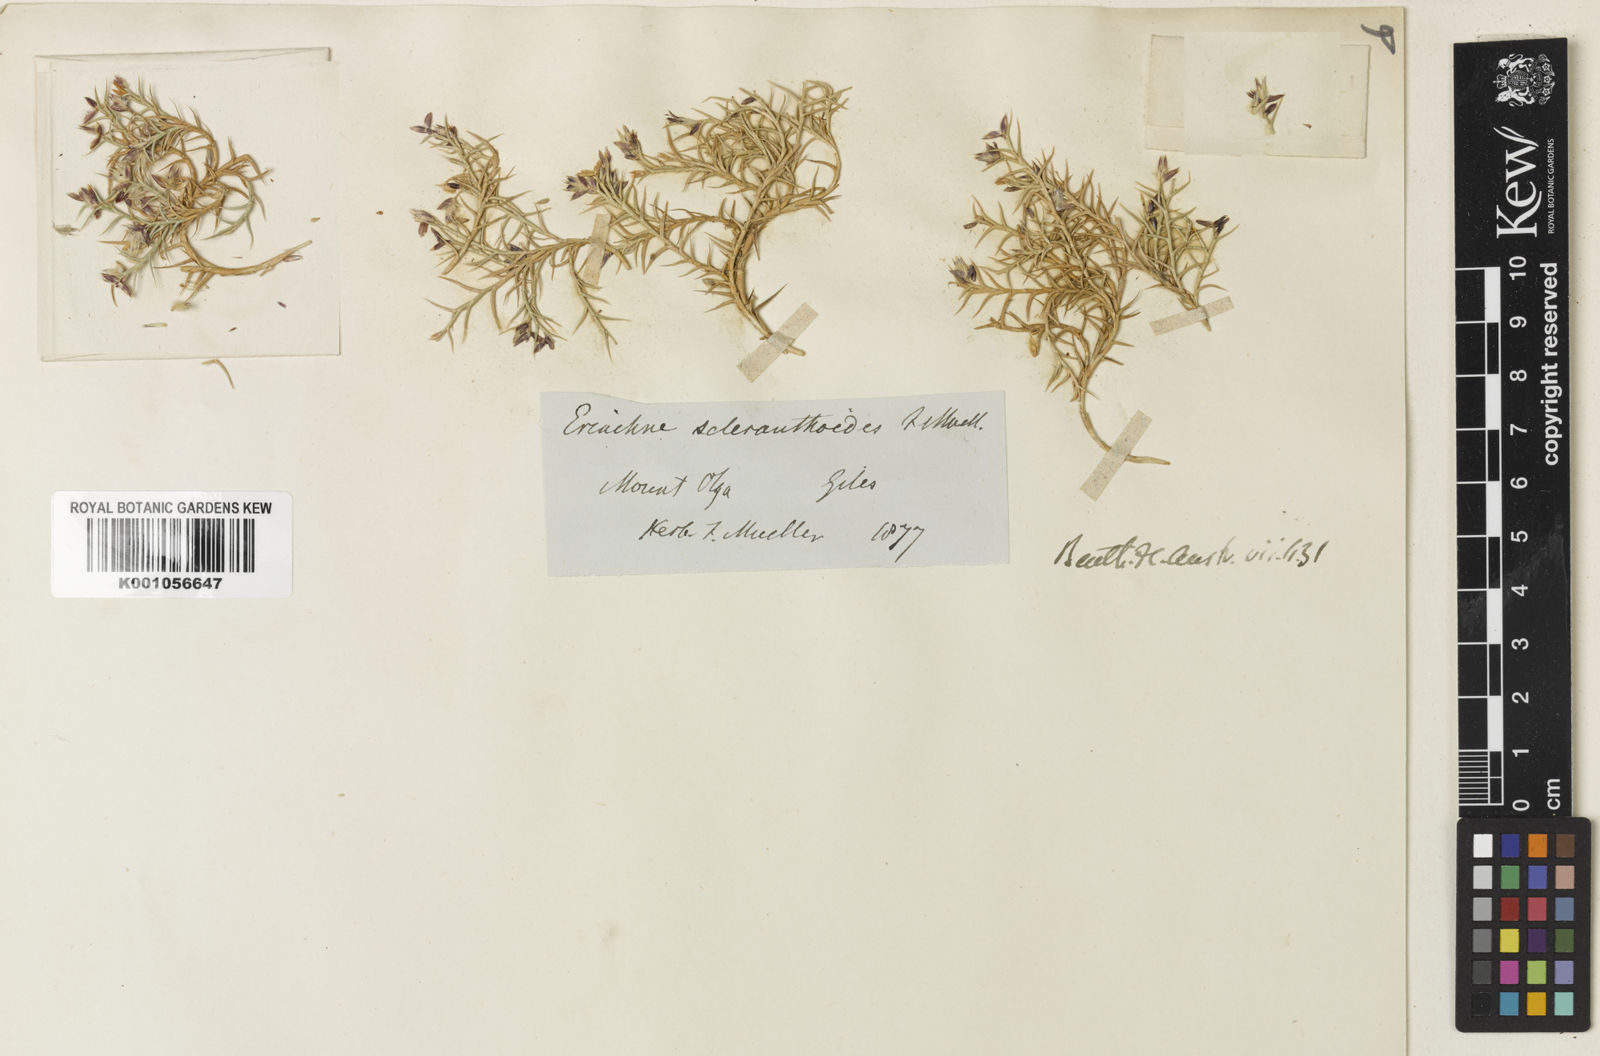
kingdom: Plantae
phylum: Tracheophyta
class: Liliopsida
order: Poales
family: Poaceae
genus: Eriachne
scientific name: Eriachne scleranthoides
